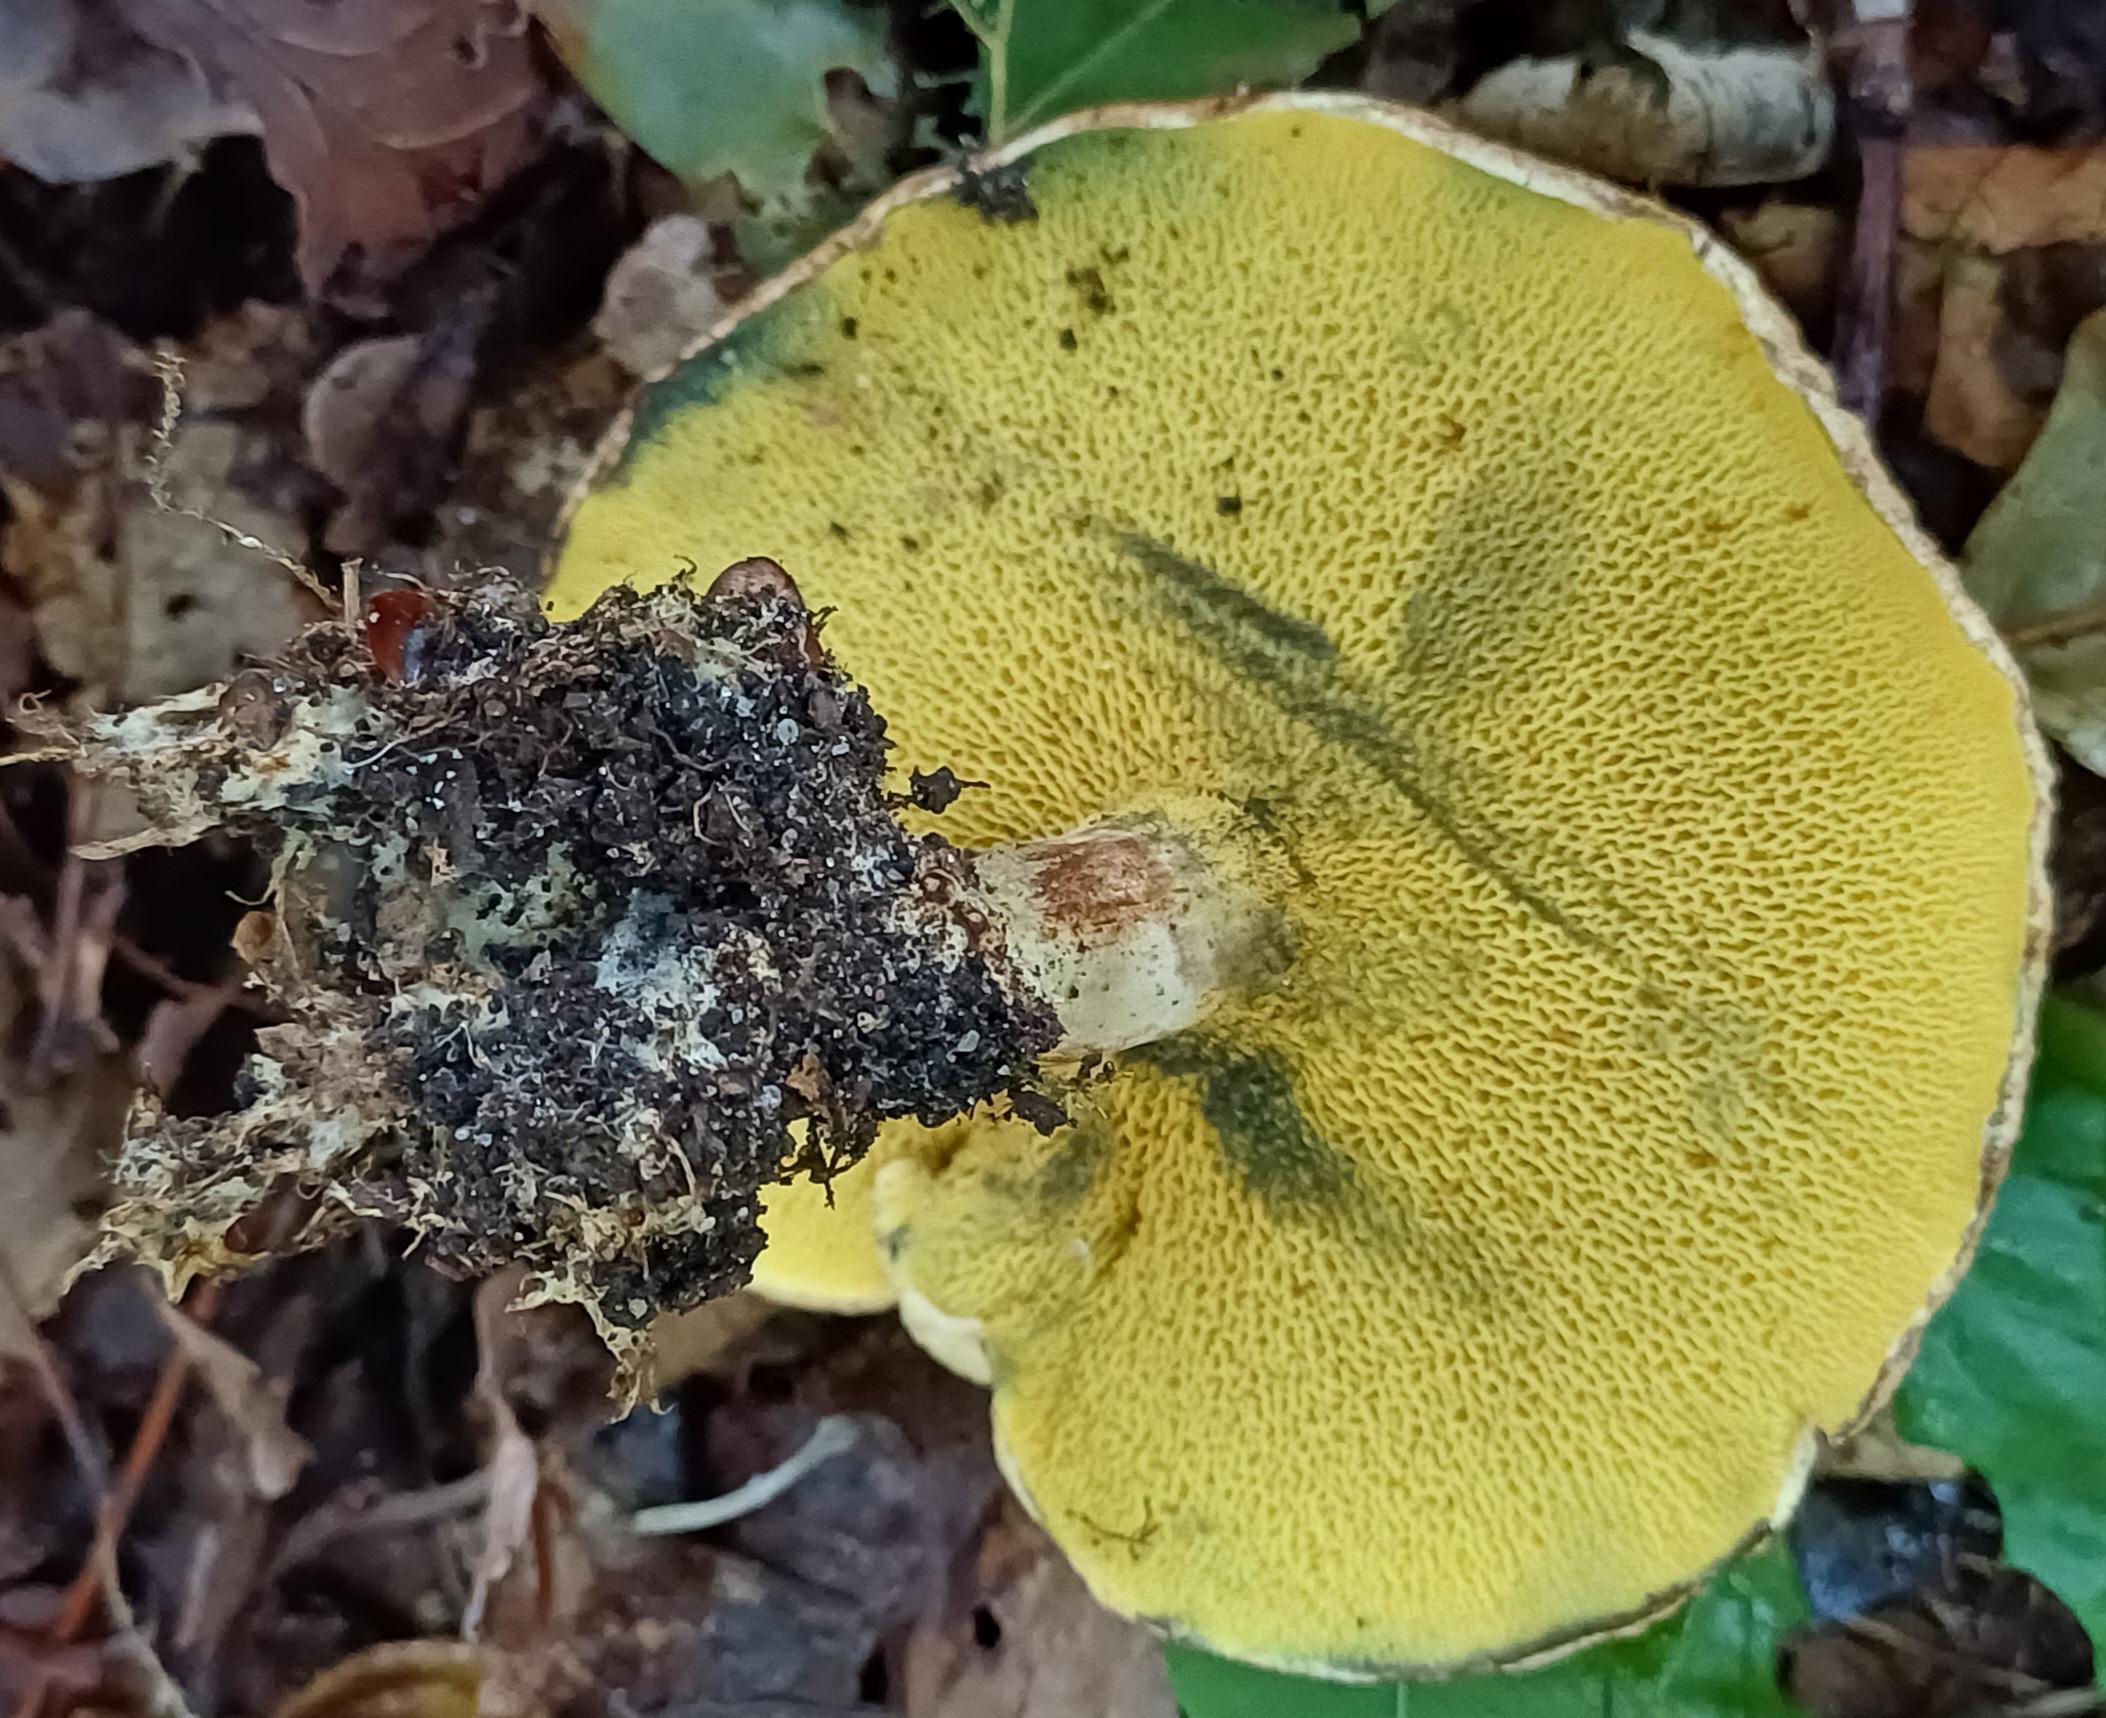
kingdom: Fungi
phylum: Basidiomycota
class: Agaricomycetes
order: Boletales
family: Paxillaceae
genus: Gyrodon
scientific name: Gyrodon lividus
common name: ellerørhat
